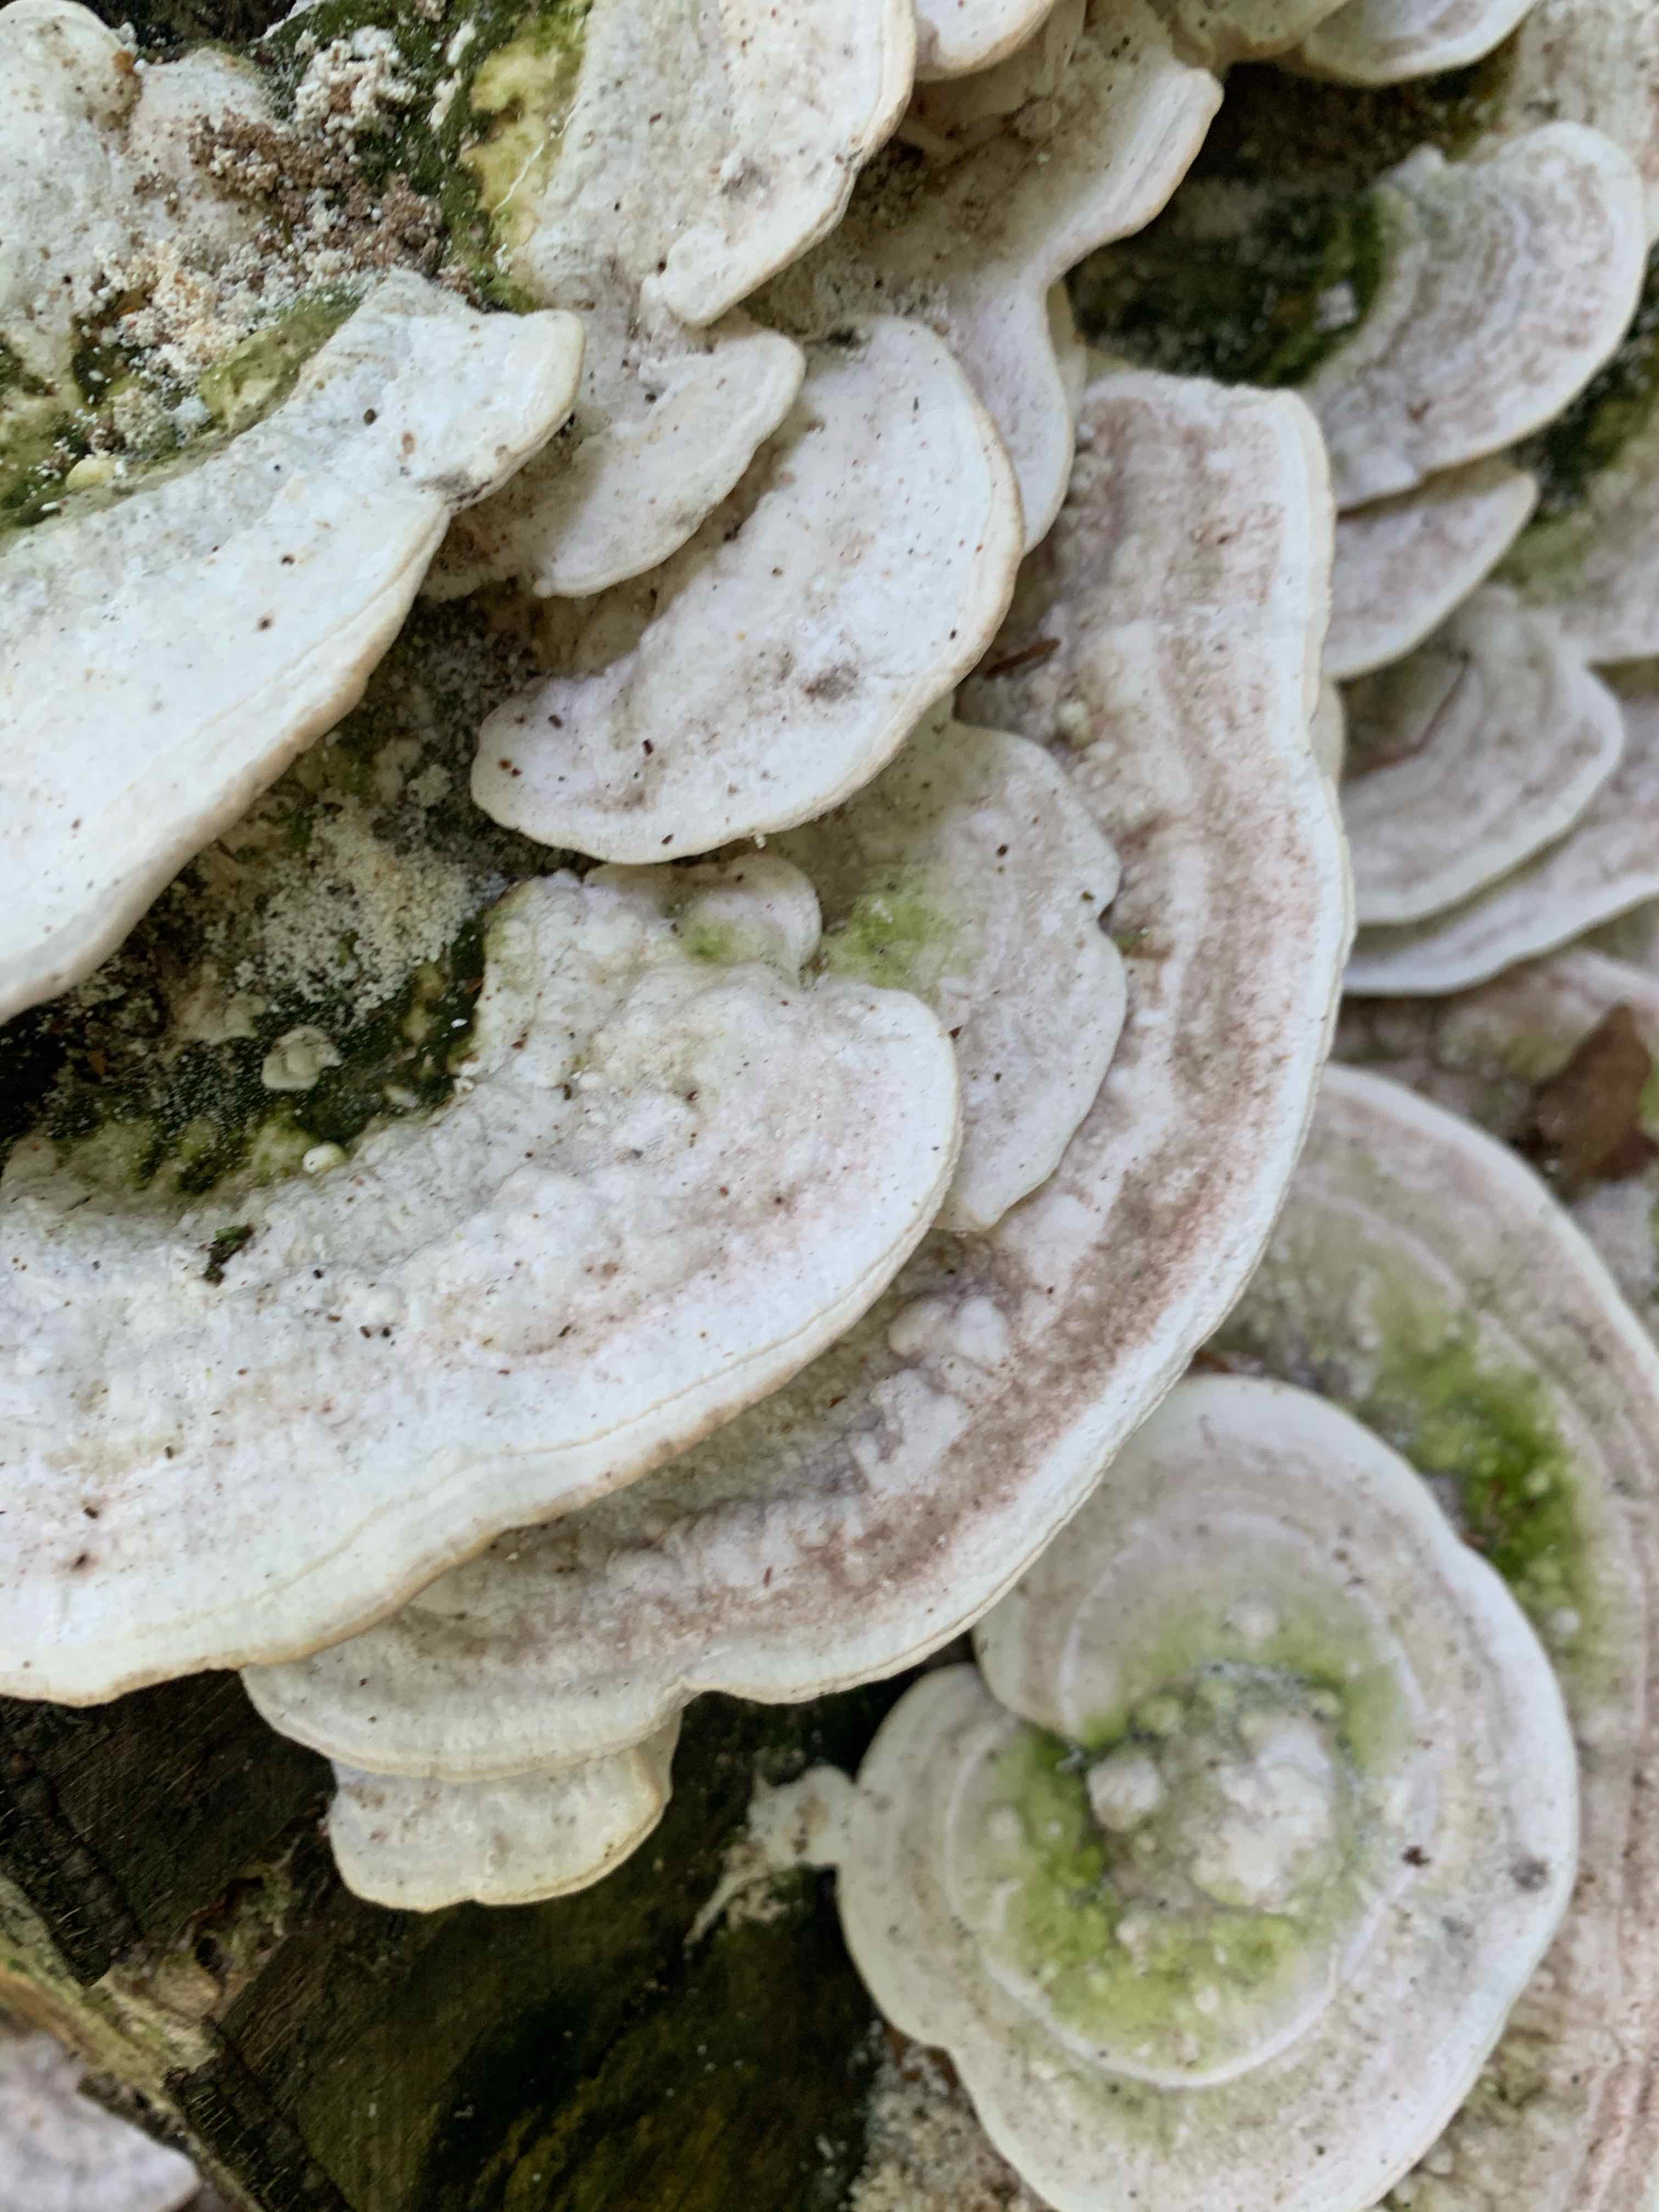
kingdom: Fungi
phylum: Basidiomycota
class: Agaricomycetes
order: Polyporales
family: Polyporaceae
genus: Trametes
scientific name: Trametes gibbosa
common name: puklet læderporesvamp
